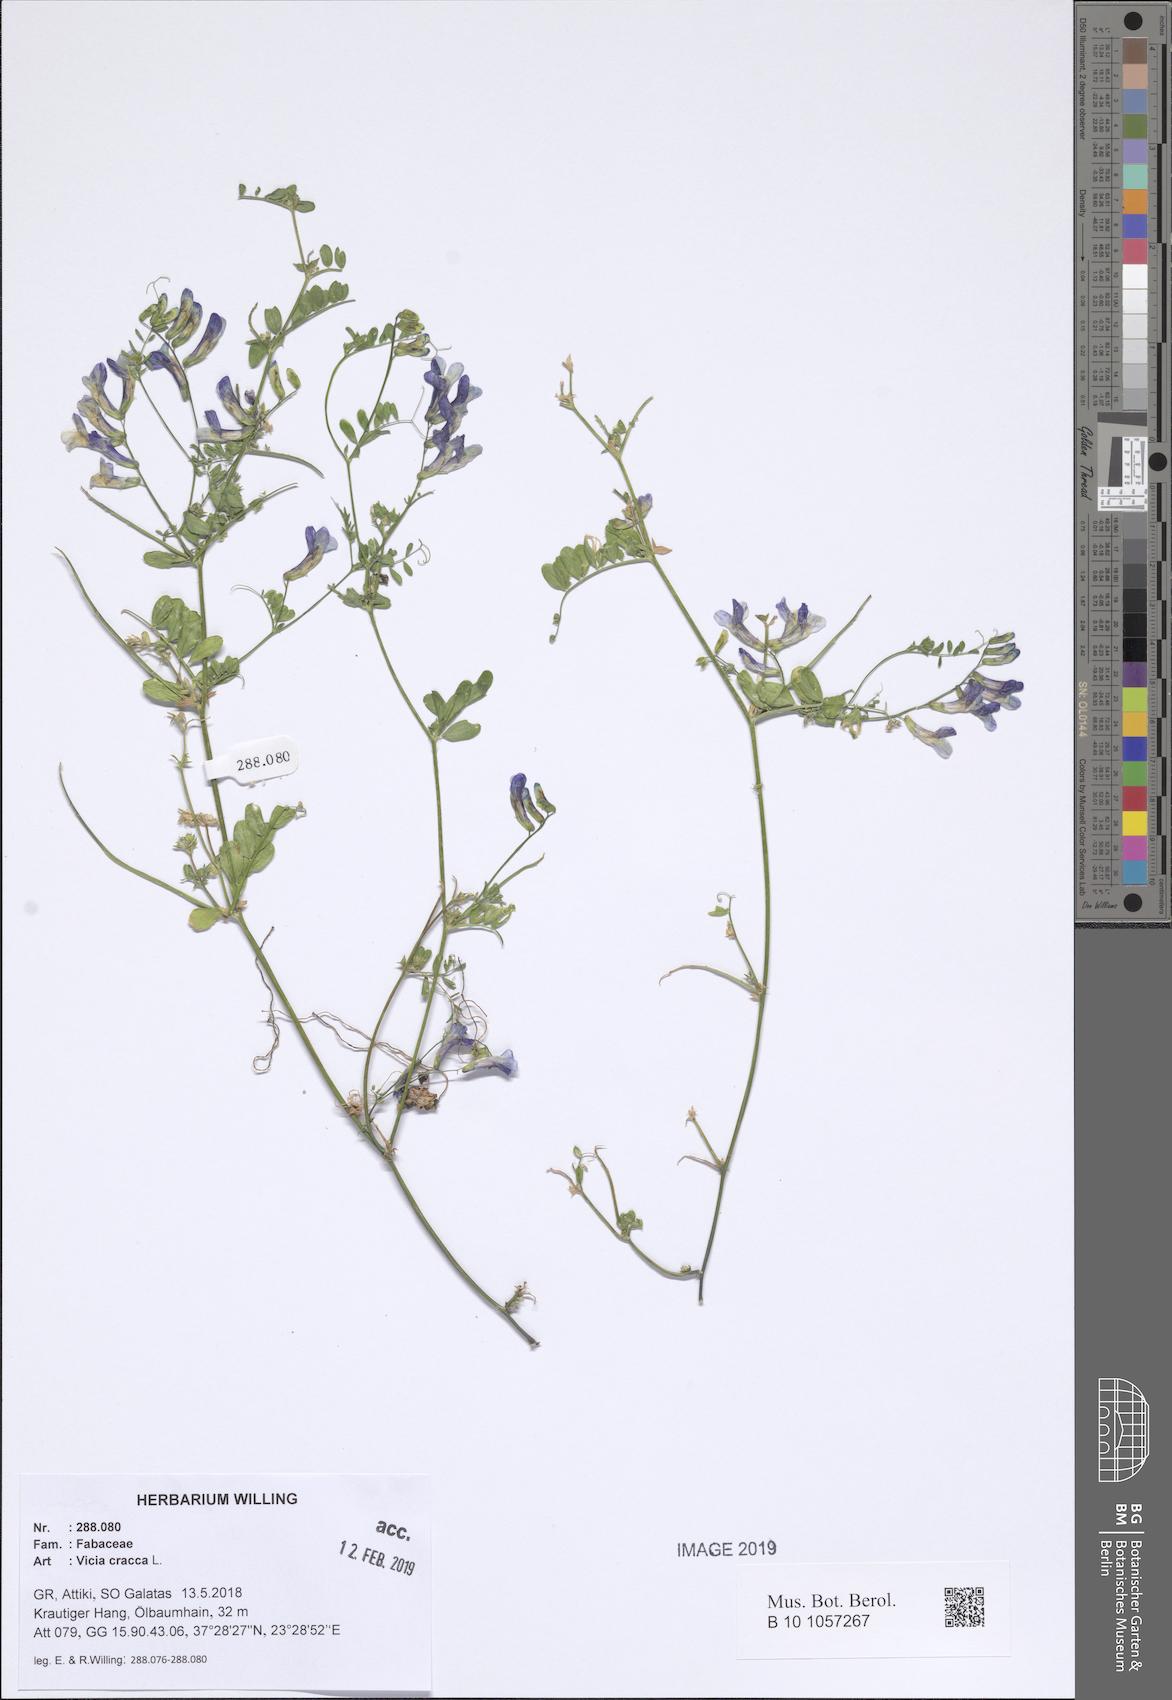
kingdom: Plantae
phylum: Tracheophyta
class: Magnoliopsida
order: Fabales
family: Fabaceae
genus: Vicia
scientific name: Vicia cracca
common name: Bird vetch
